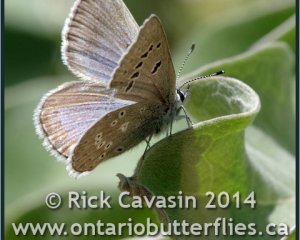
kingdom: Animalia
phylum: Arthropoda
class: Insecta
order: Lepidoptera
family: Lycaenidae
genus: Icaricia
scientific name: Icaricia icarioides
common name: Boisduval's Blue
